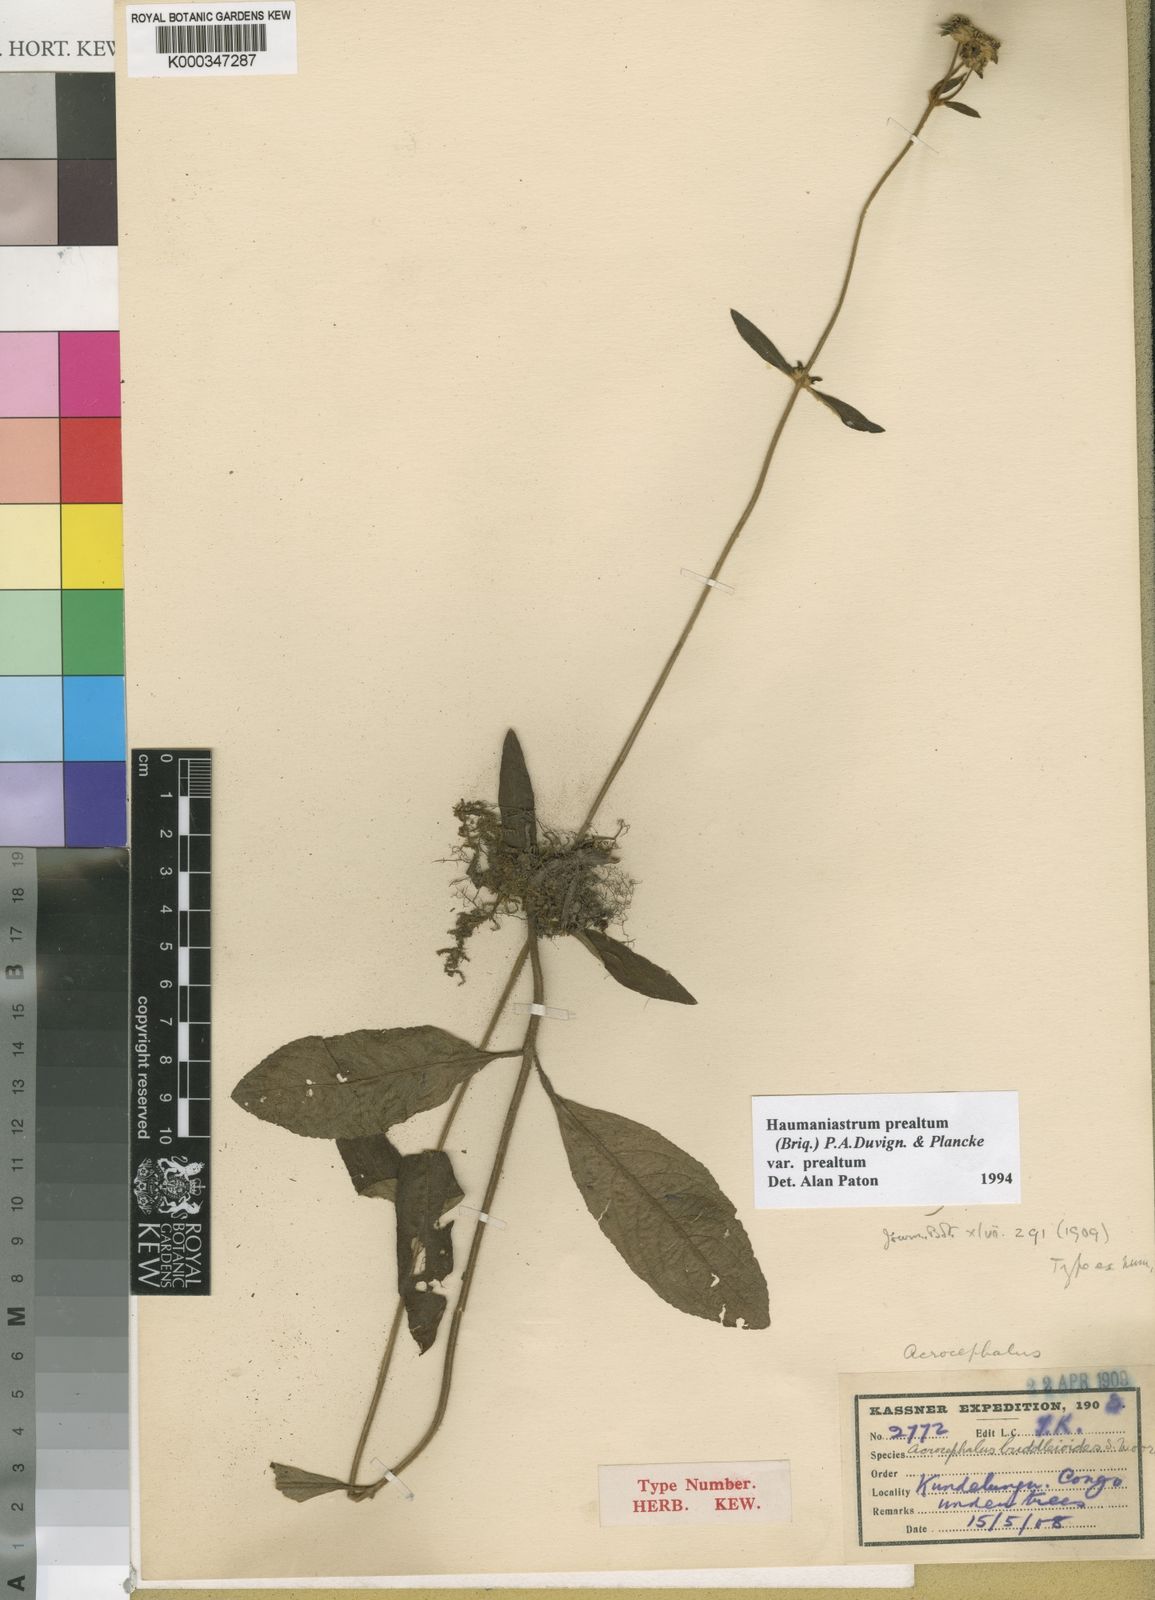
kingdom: Plantae
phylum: Tracheophyta
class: Magnoliopsida
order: Lamiales
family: Lamiaceae
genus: Haumaniastrum
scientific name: Haumaniastrum
